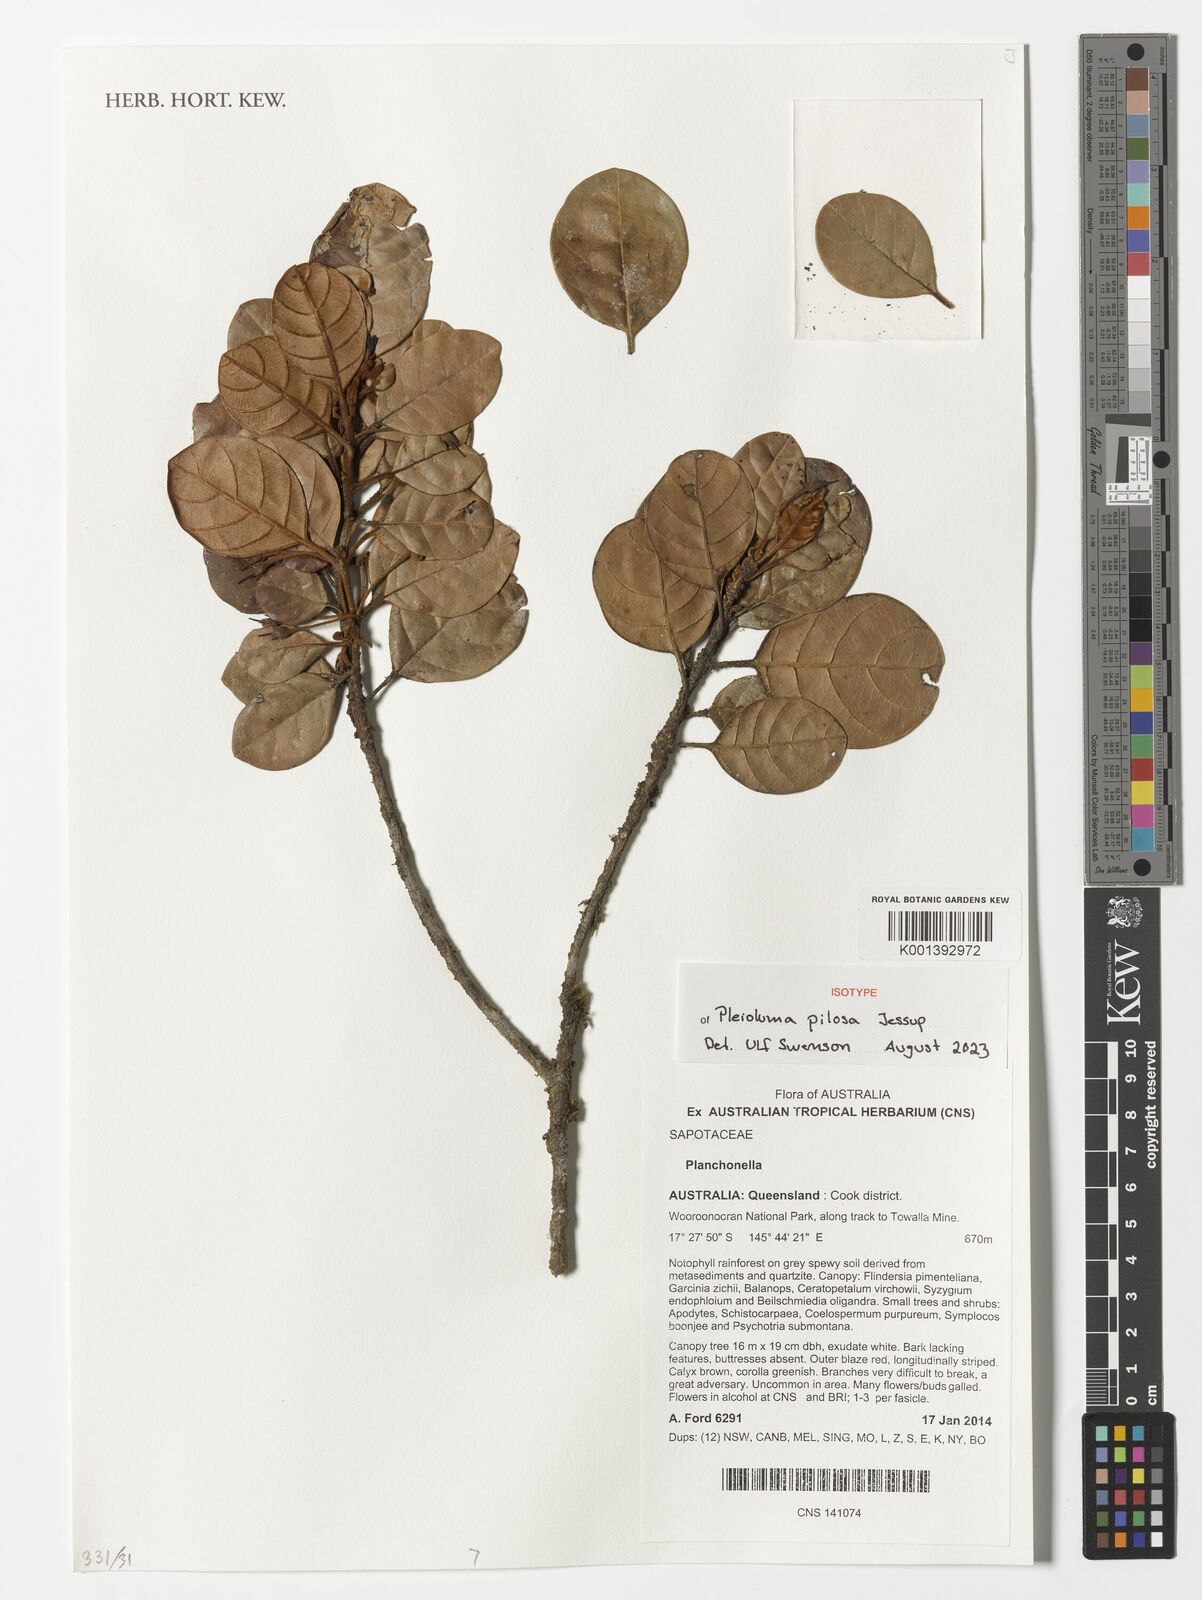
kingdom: Plantae
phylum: Tracheophyta
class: Magnoliopsida
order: Ericales
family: Sapotaceae
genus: Pleioluma
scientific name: Pleioluma pilosa
